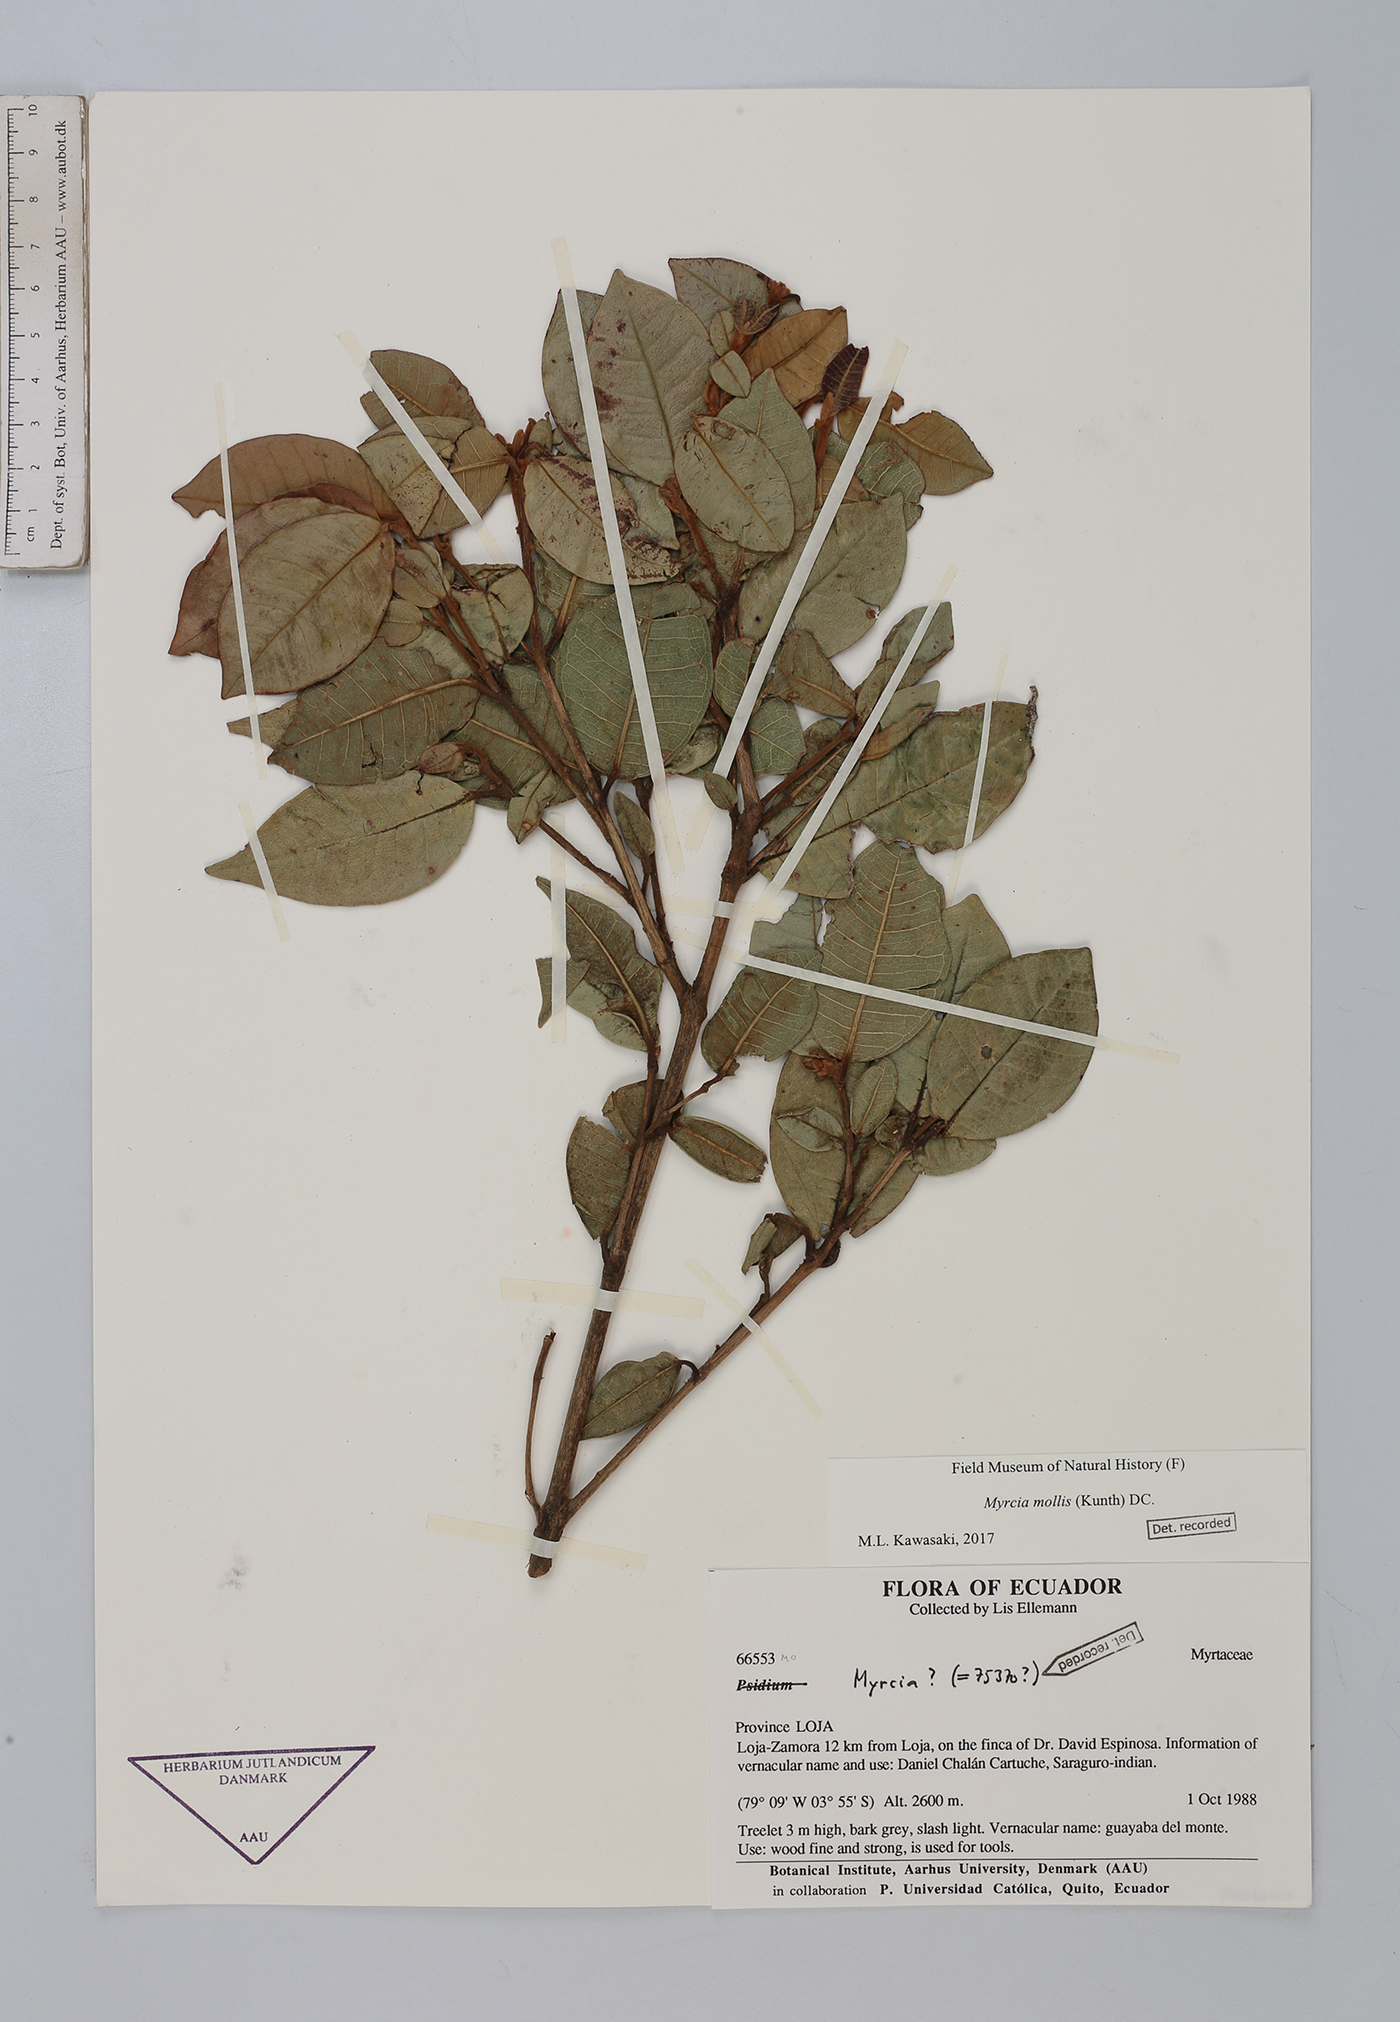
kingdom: Plantae
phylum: Tracheophyta
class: Magnoliopsida
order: Myrtales
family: Myrtaceae
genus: Myrcia
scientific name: Myrcia mollis
